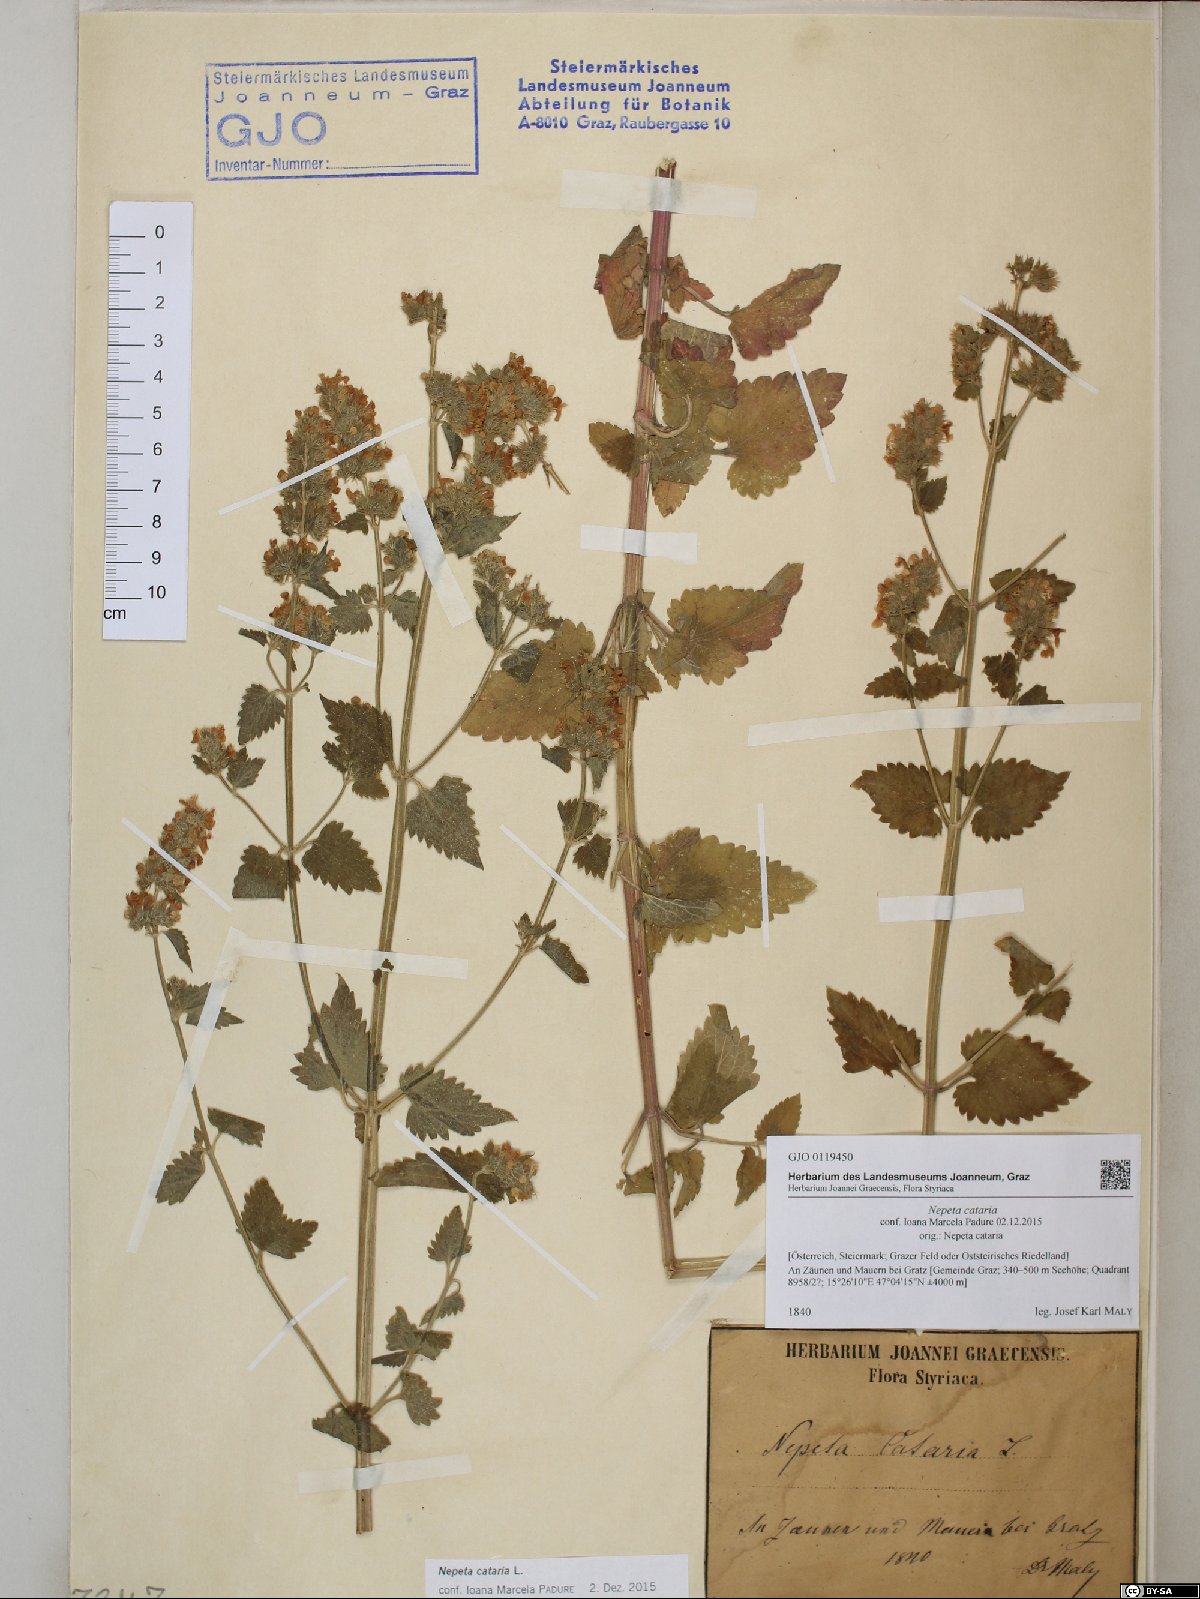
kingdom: Plantae
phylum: Tracheophyta
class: Magnoliopsida
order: Lamiales
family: Lamiaceae
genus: Nepeta
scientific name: Nepeta cataria
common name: Catnip
